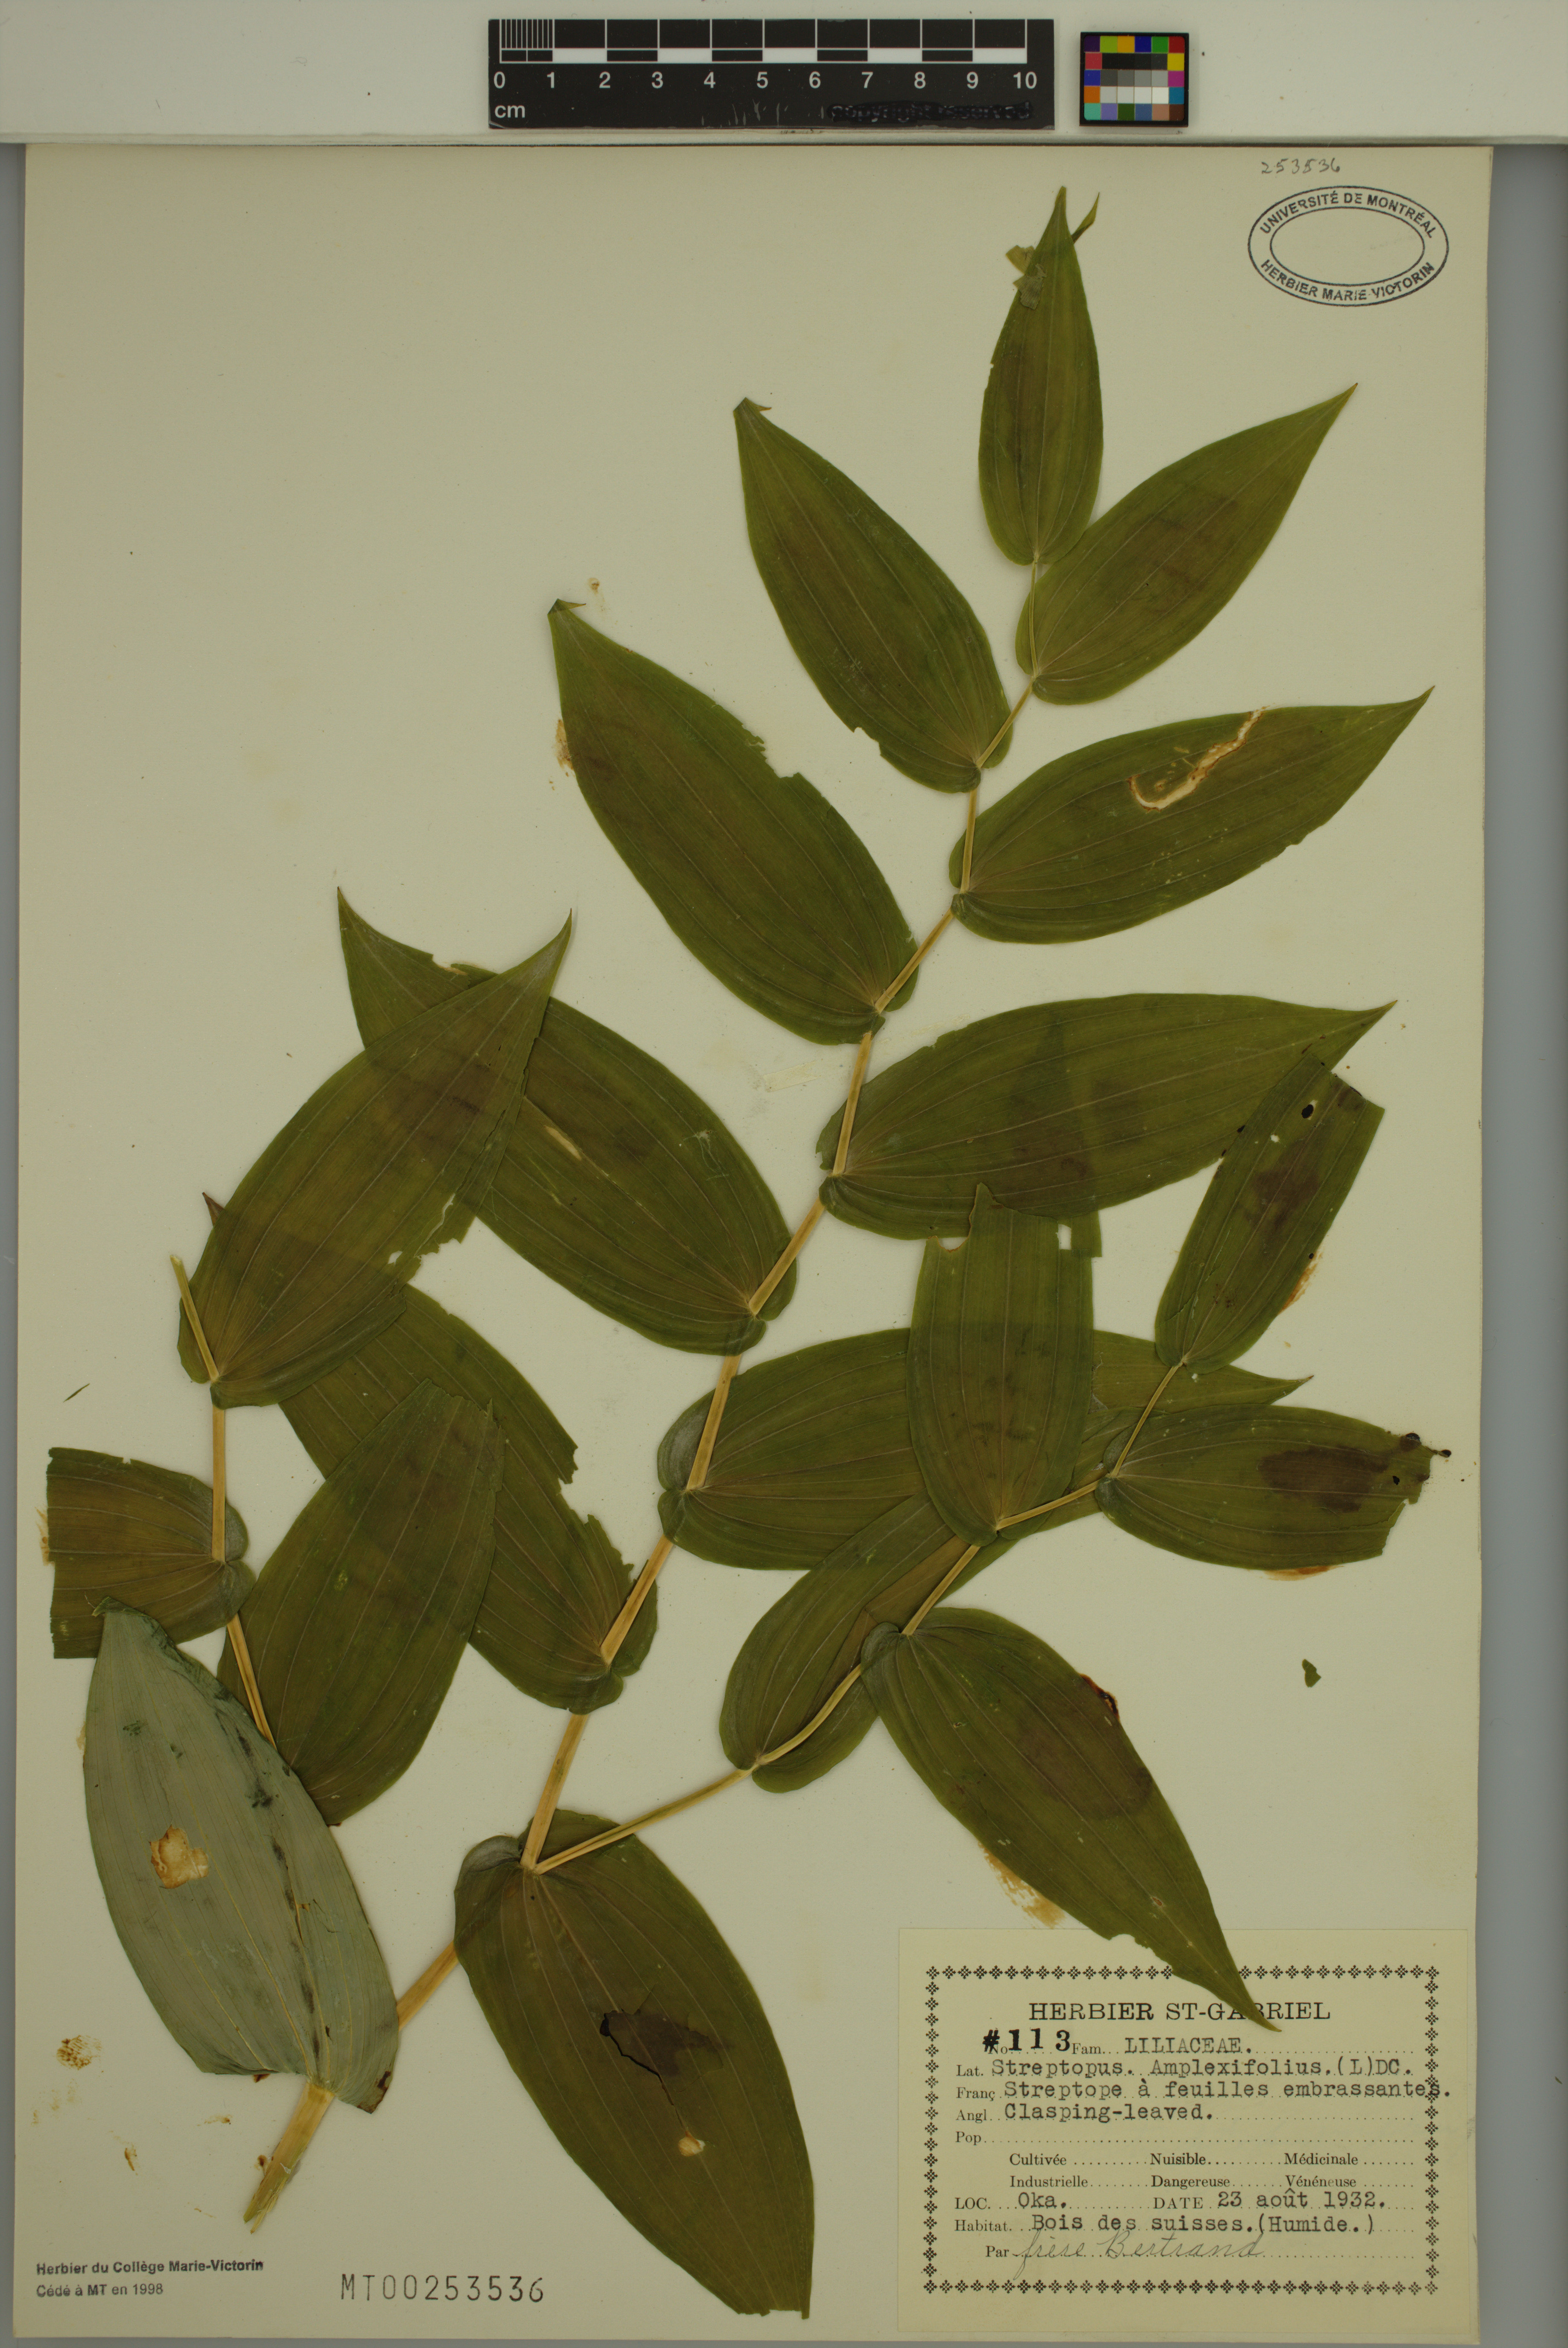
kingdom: Plantae
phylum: Tracheophyta
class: Liliopsida
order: Liliales
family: Liliaceae
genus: Streptopus
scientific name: Streptopus amplexifolius
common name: Clasp twisted stalk
